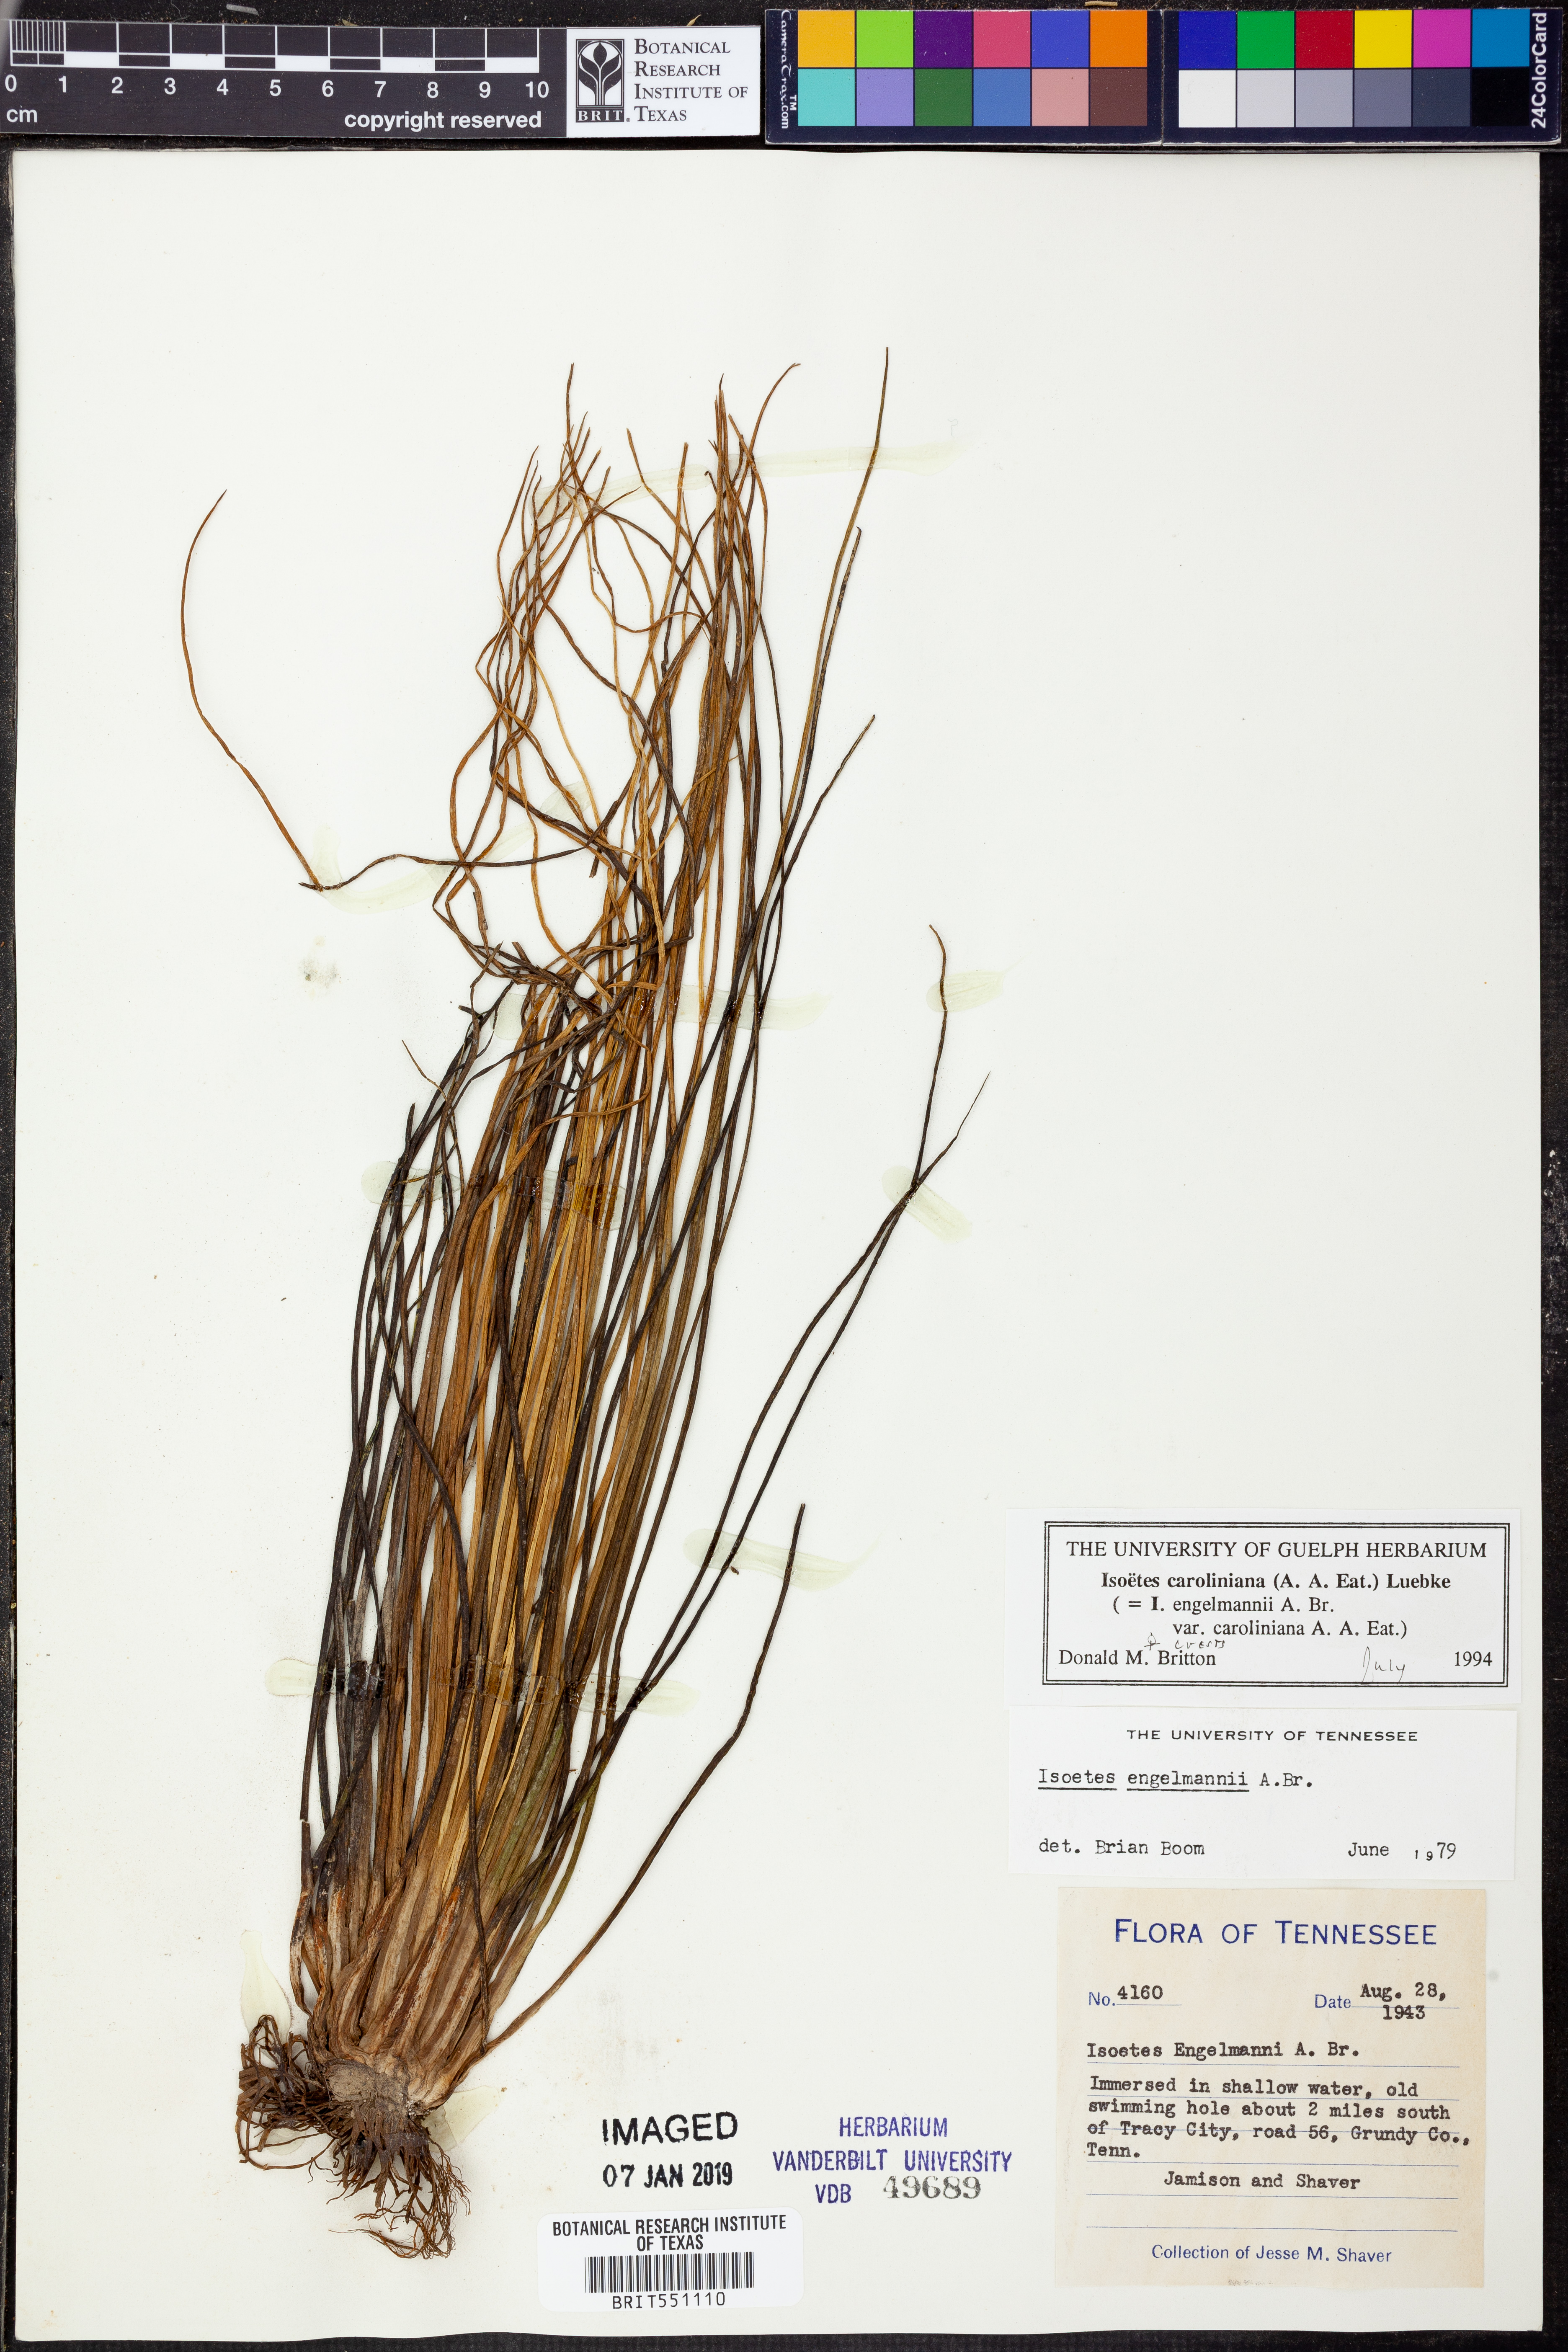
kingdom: Plantae
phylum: Tracheophyta
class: Lycopodiopsida
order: Isoetales
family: Isoetaceae
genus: Isoetes
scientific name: Isoetes caroliniana
